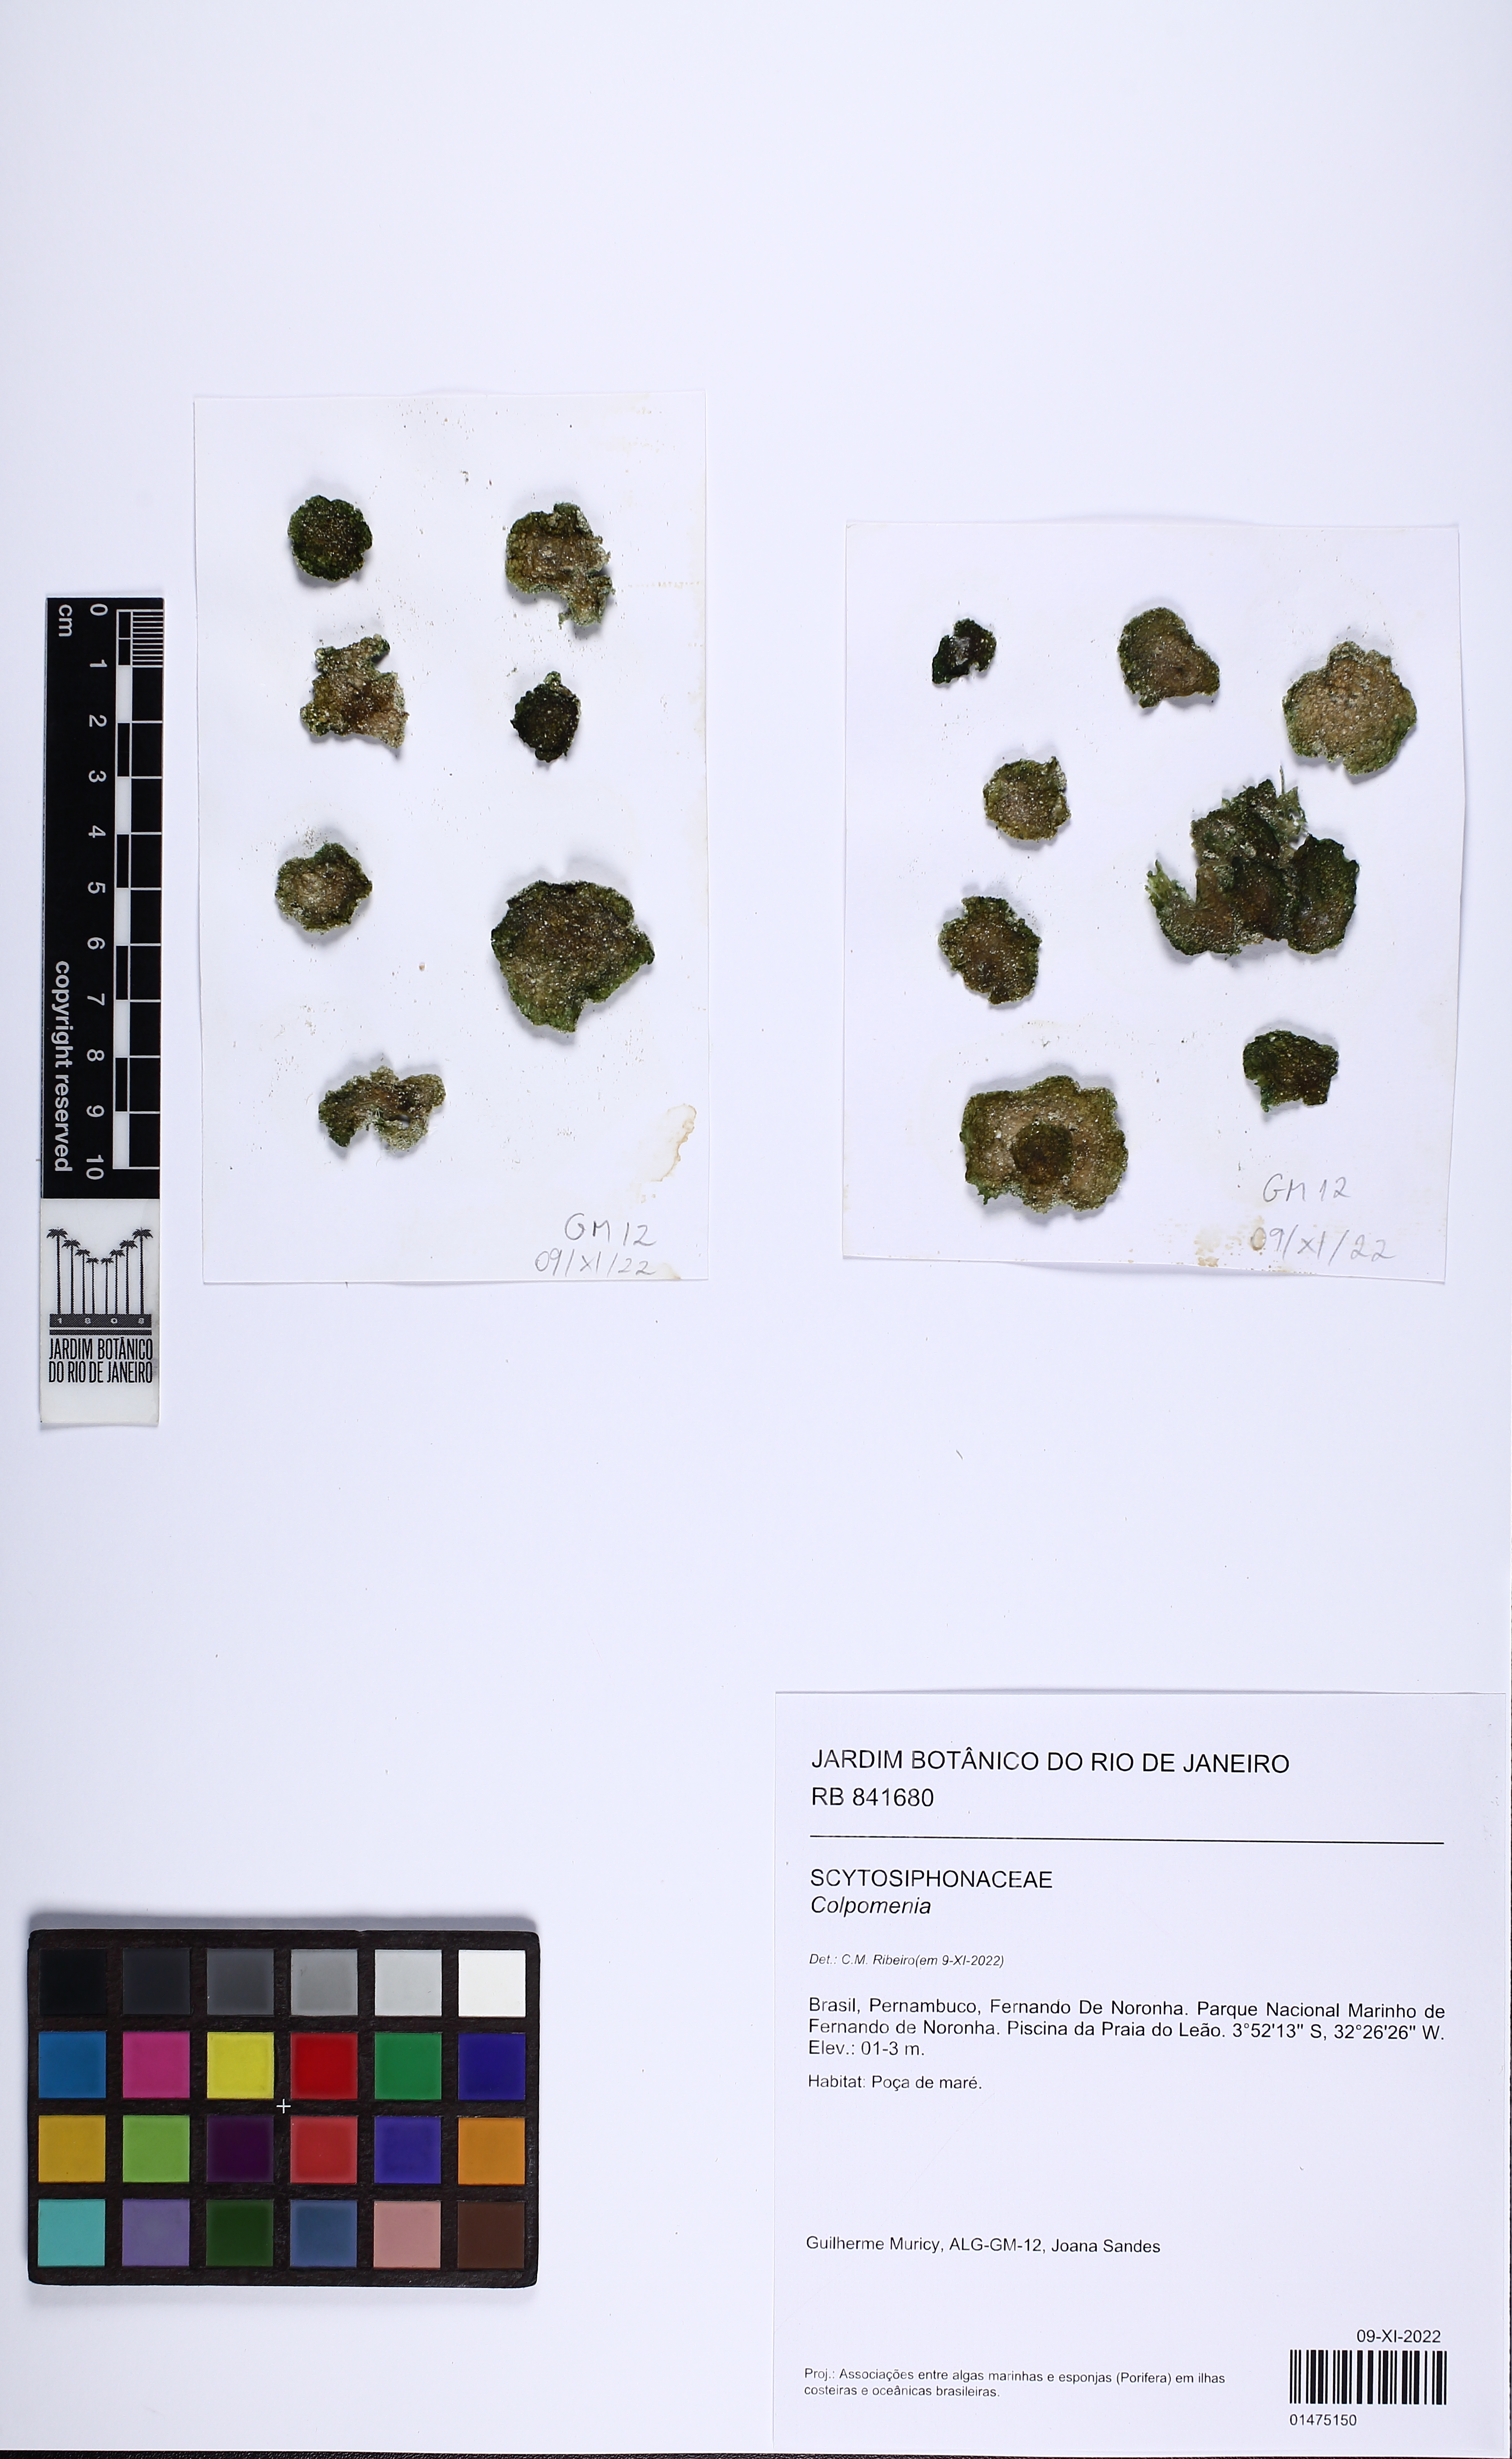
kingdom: Chromista
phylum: Ochrophyta
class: Phaeophyceae
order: Scytosiphonales
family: Scytosiphonaceae
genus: Colpomenia
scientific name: Colpomenia
